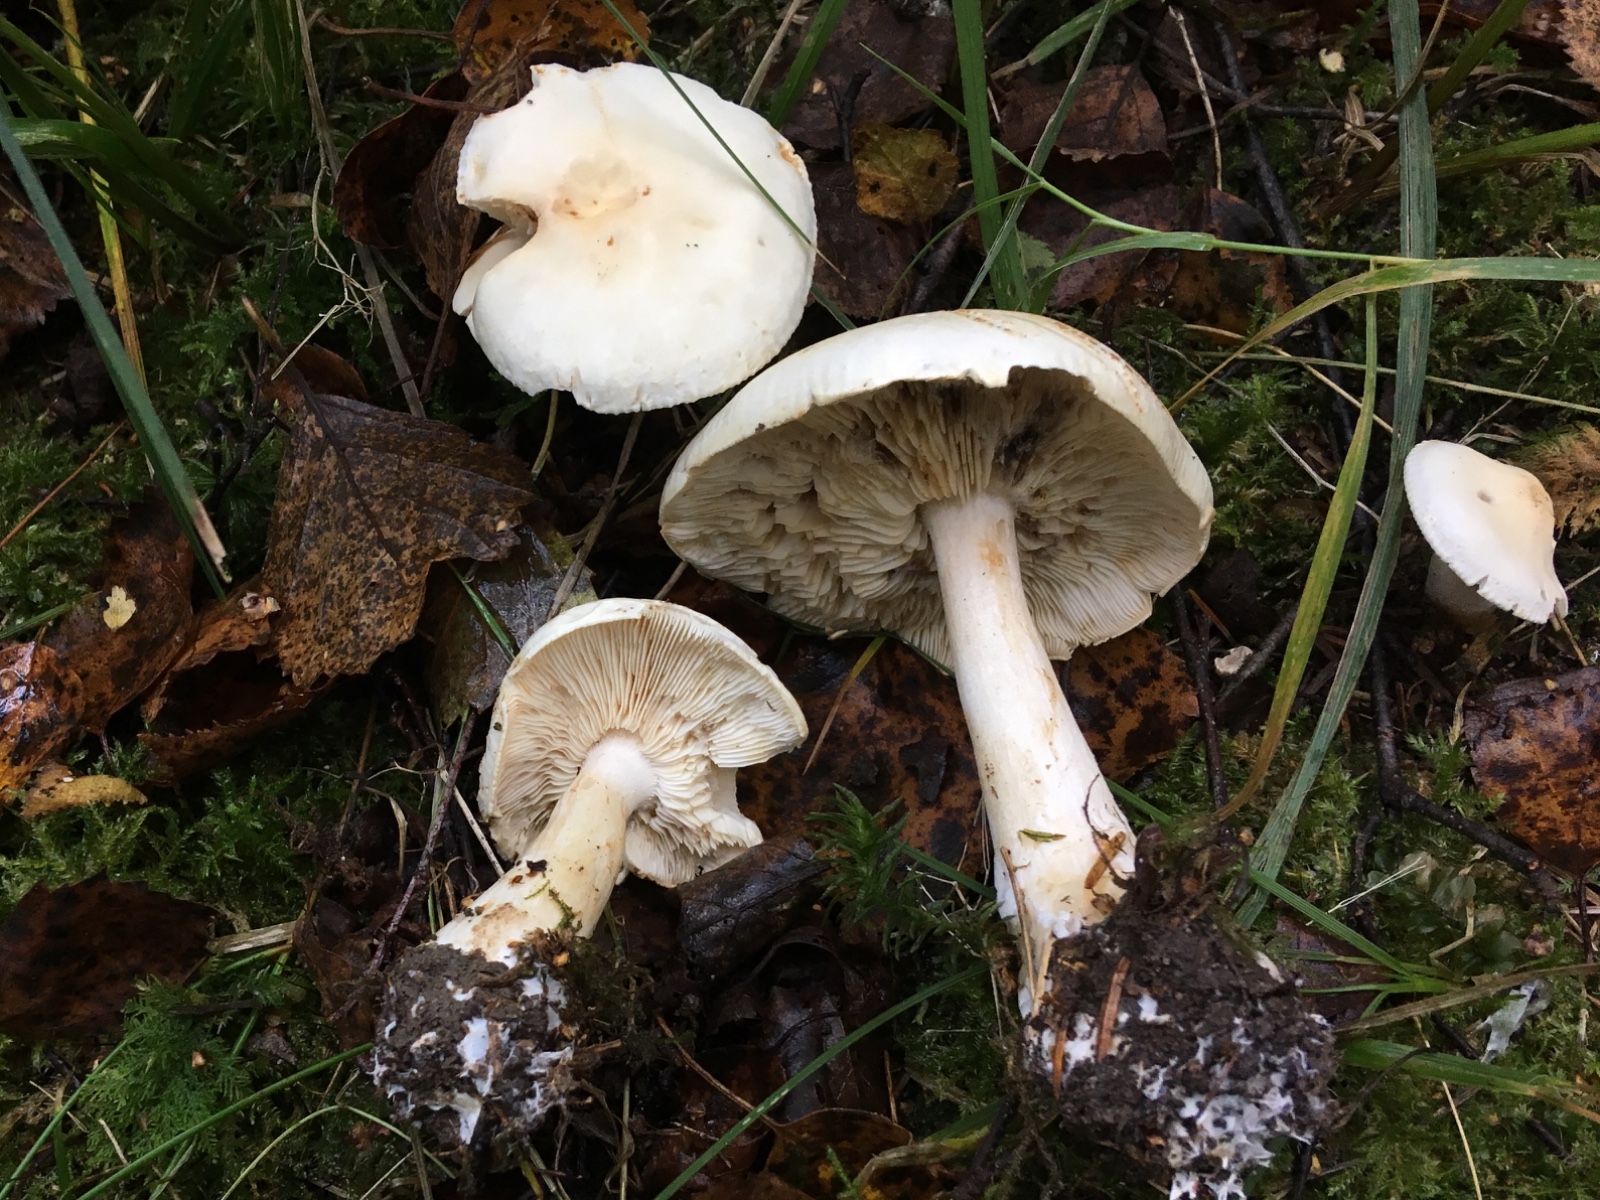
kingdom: Fungi
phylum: Basidiomycota
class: Agaricomycetes
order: Agaricales
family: Tricholomataceae
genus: Tricholoma
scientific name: Tricholoma stiparophyllum
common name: hvid ridderhat
